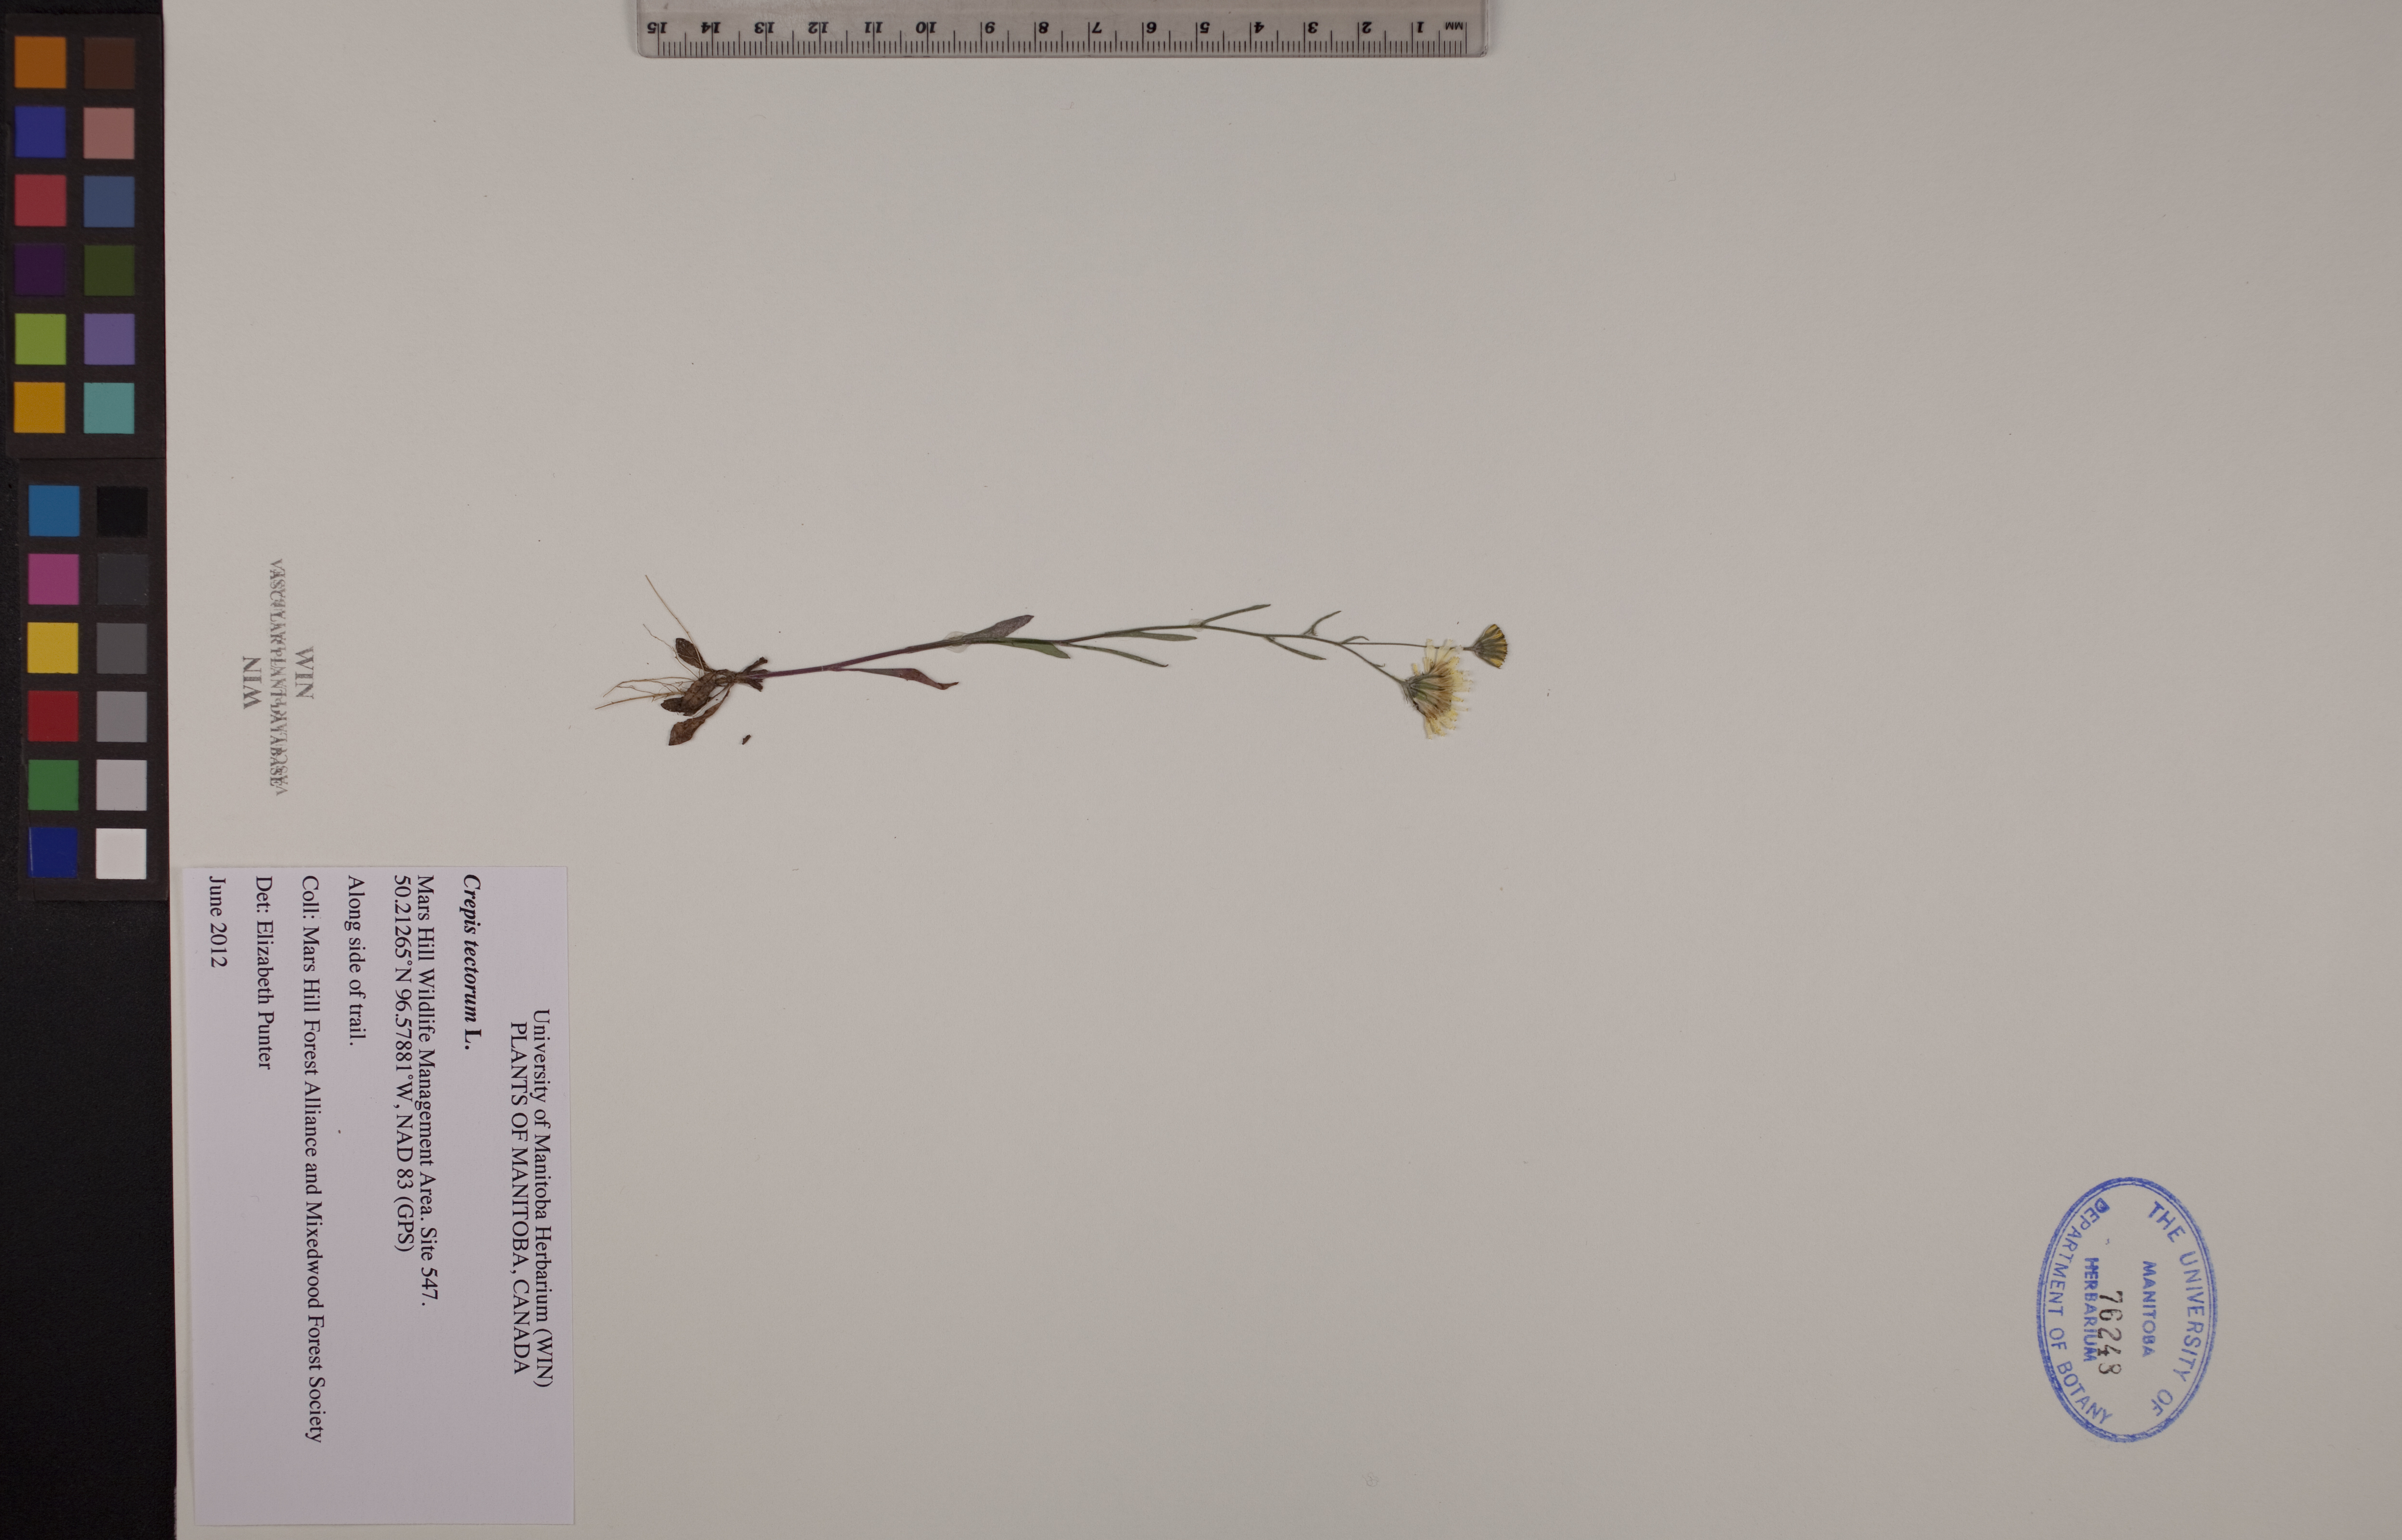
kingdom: Plantae
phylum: Tracheophyta
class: Magnoliopsida
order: Asterales
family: Asteraceae
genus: Crepis
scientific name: Crepis tectorum
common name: Narrow-leaved hawk's-beard
